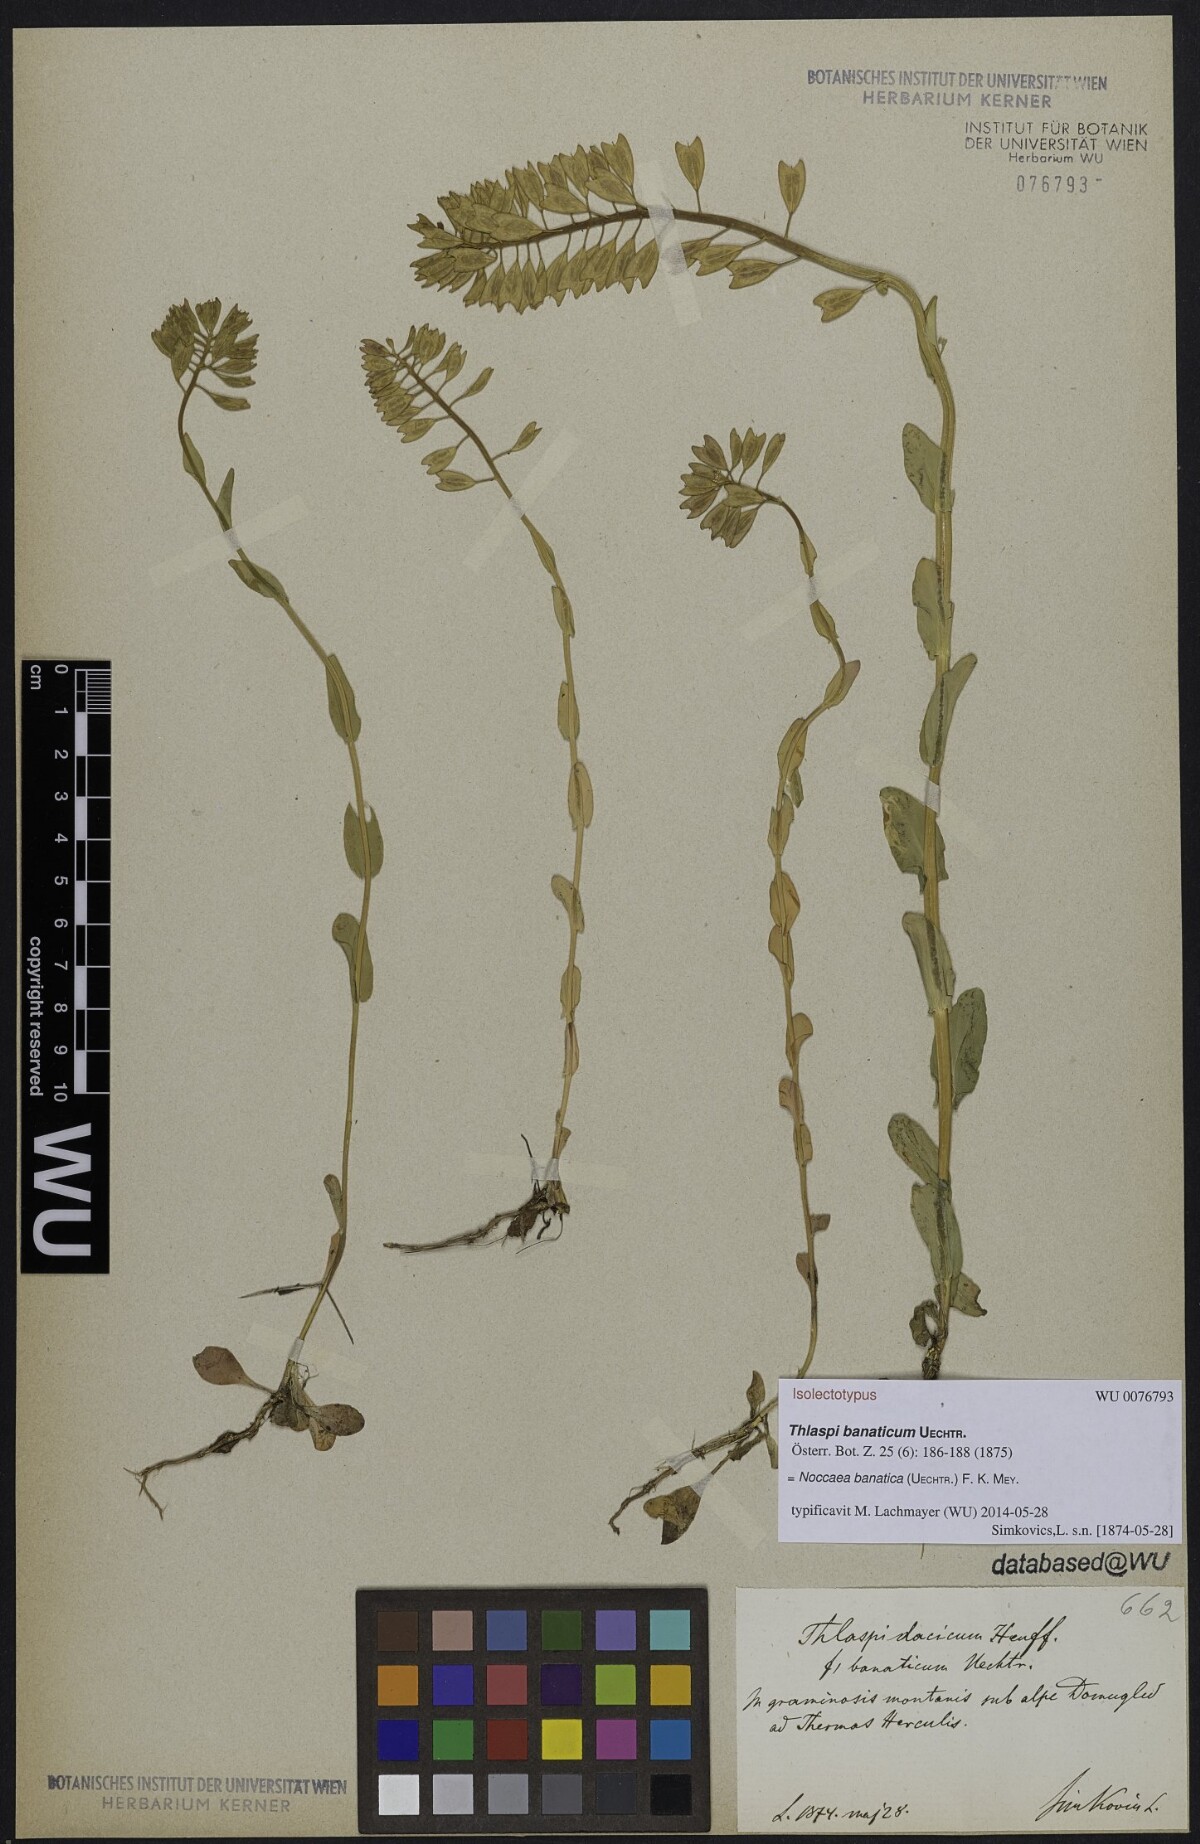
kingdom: Plantae
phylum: Tracheophyta
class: Magnoliopsida
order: Brassicales
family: Brassicaceae
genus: Noccaea
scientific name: Noccaea banatica
